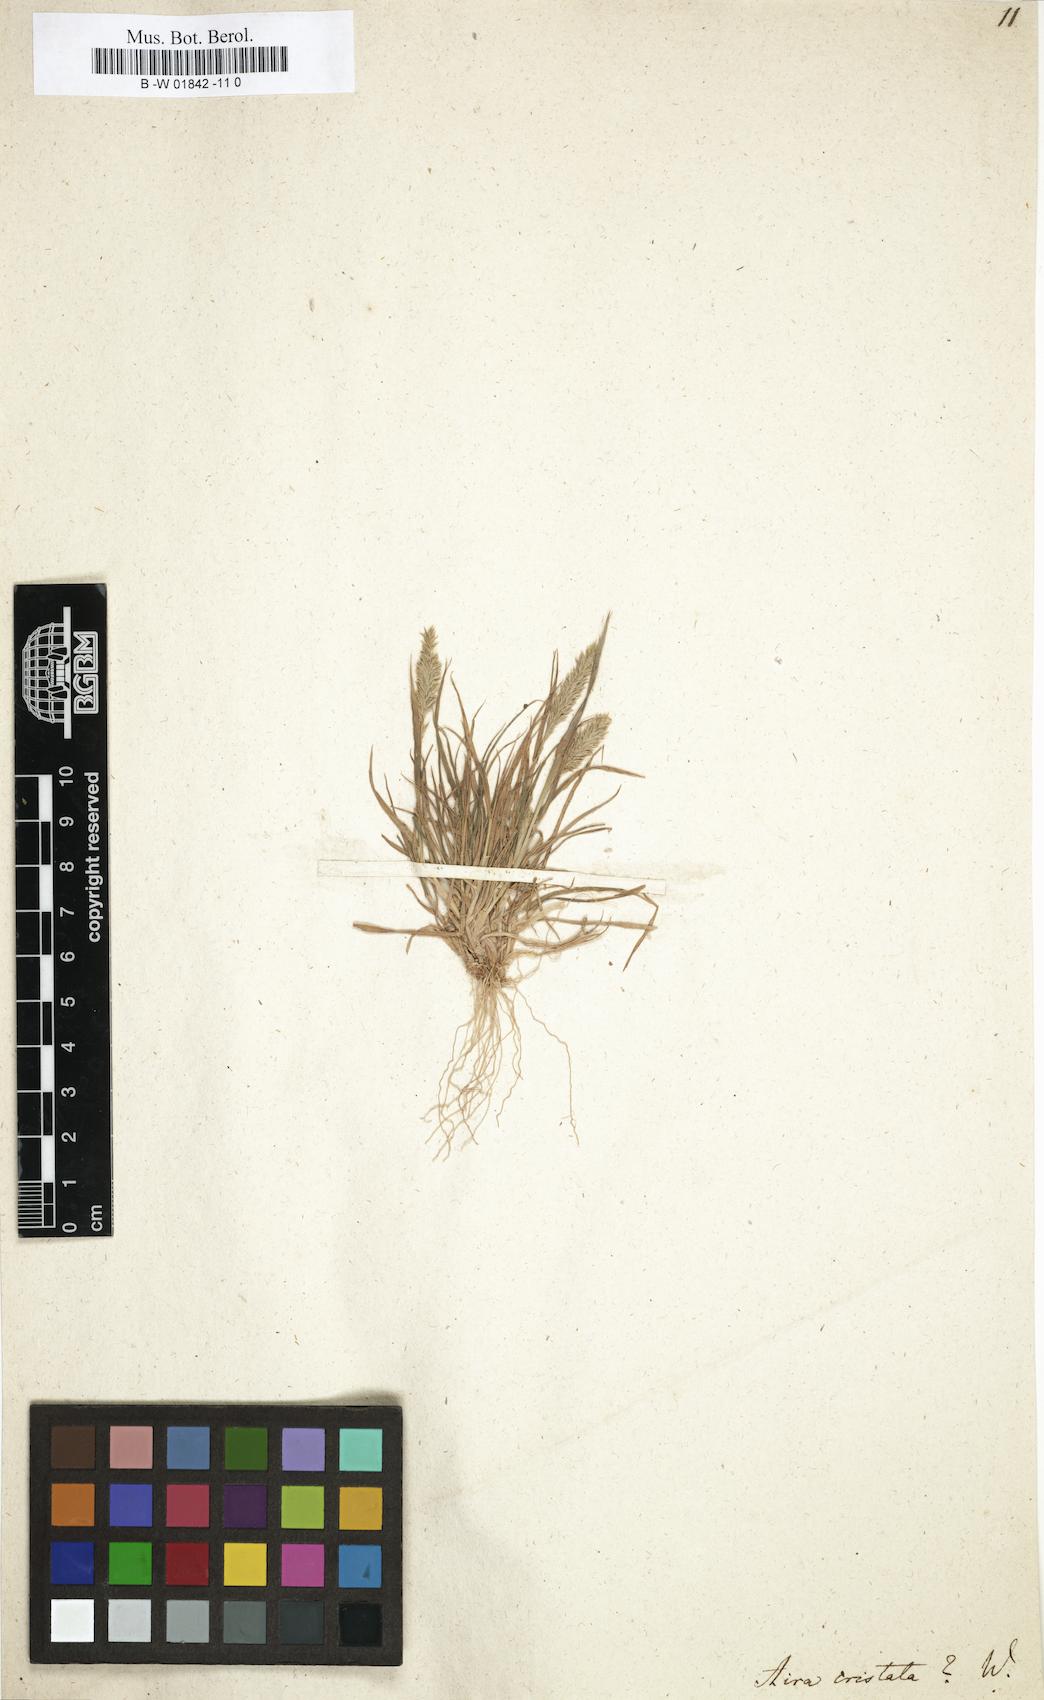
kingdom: Plantae
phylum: Tracheophyta
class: Liliopsida
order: Poales
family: Poaceae
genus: Koeleria
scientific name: Koeleria macrantha
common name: Crested hair-grass
